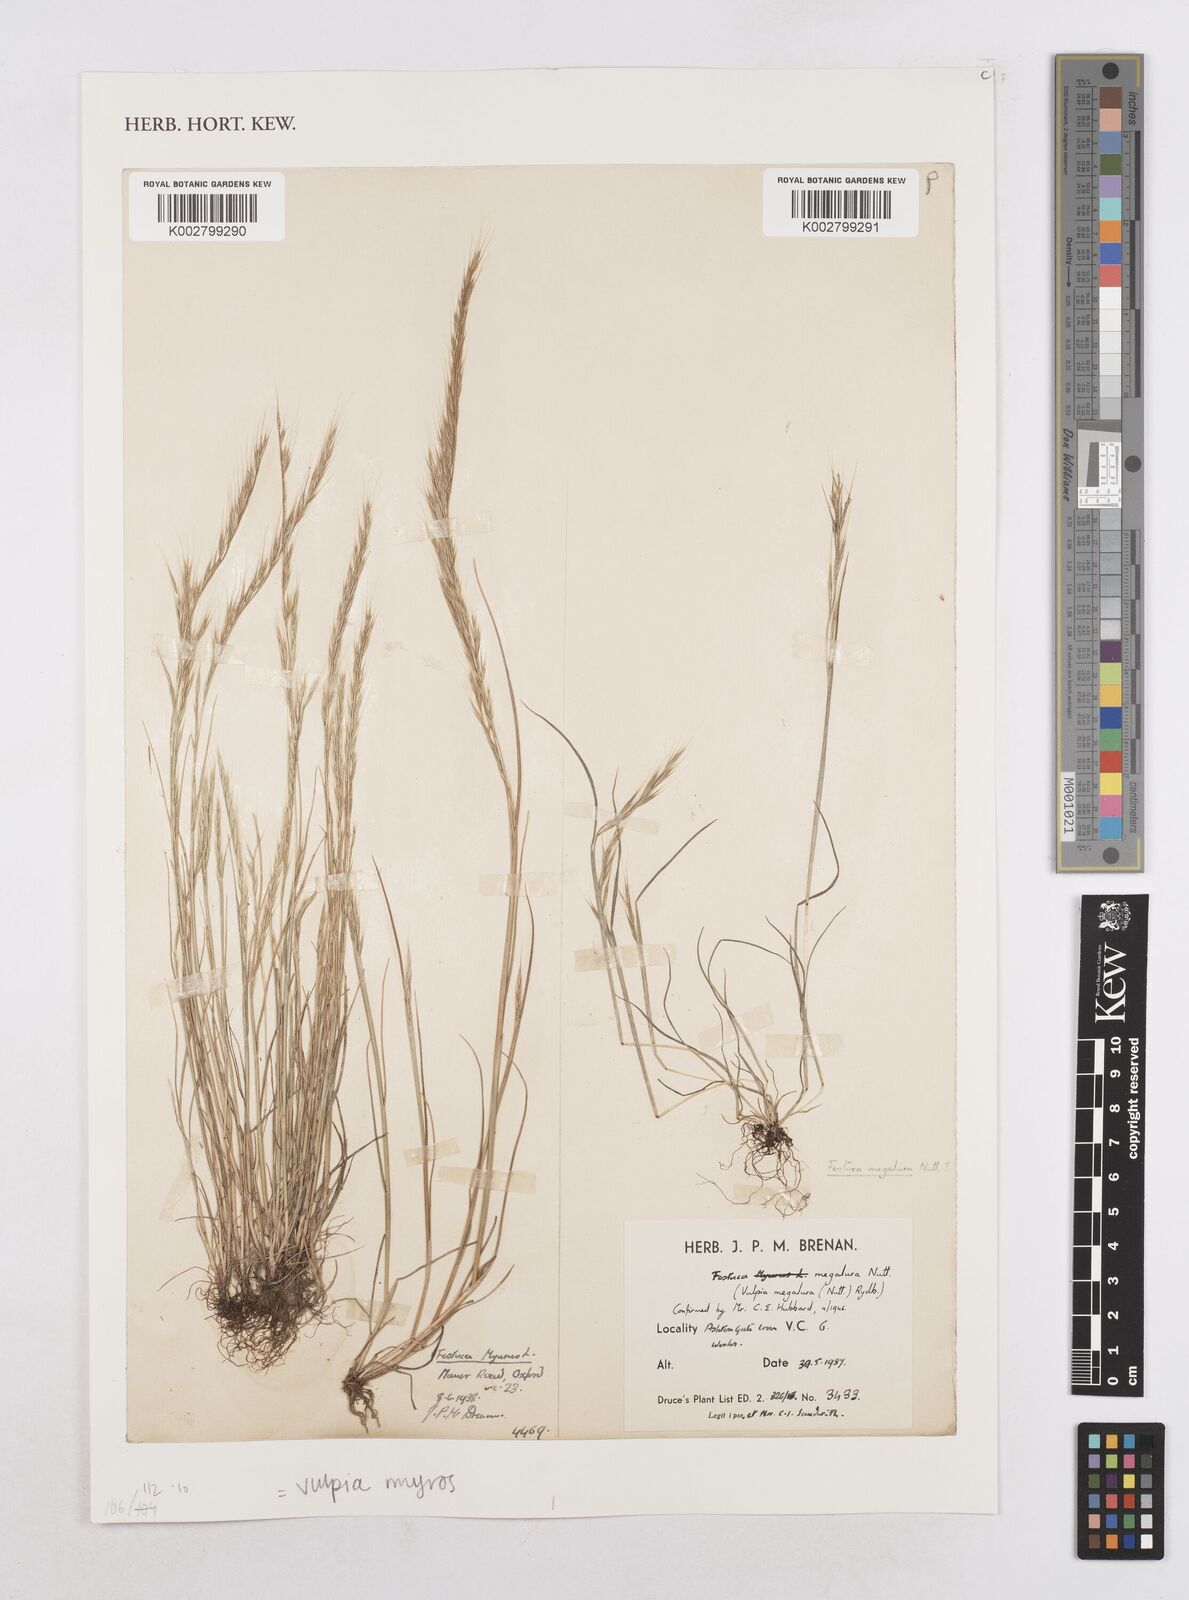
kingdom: Plantae
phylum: Tracheophyta
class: Liliopsida
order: Poales
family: Poaceae
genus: Festuca
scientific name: Festuca myuros
